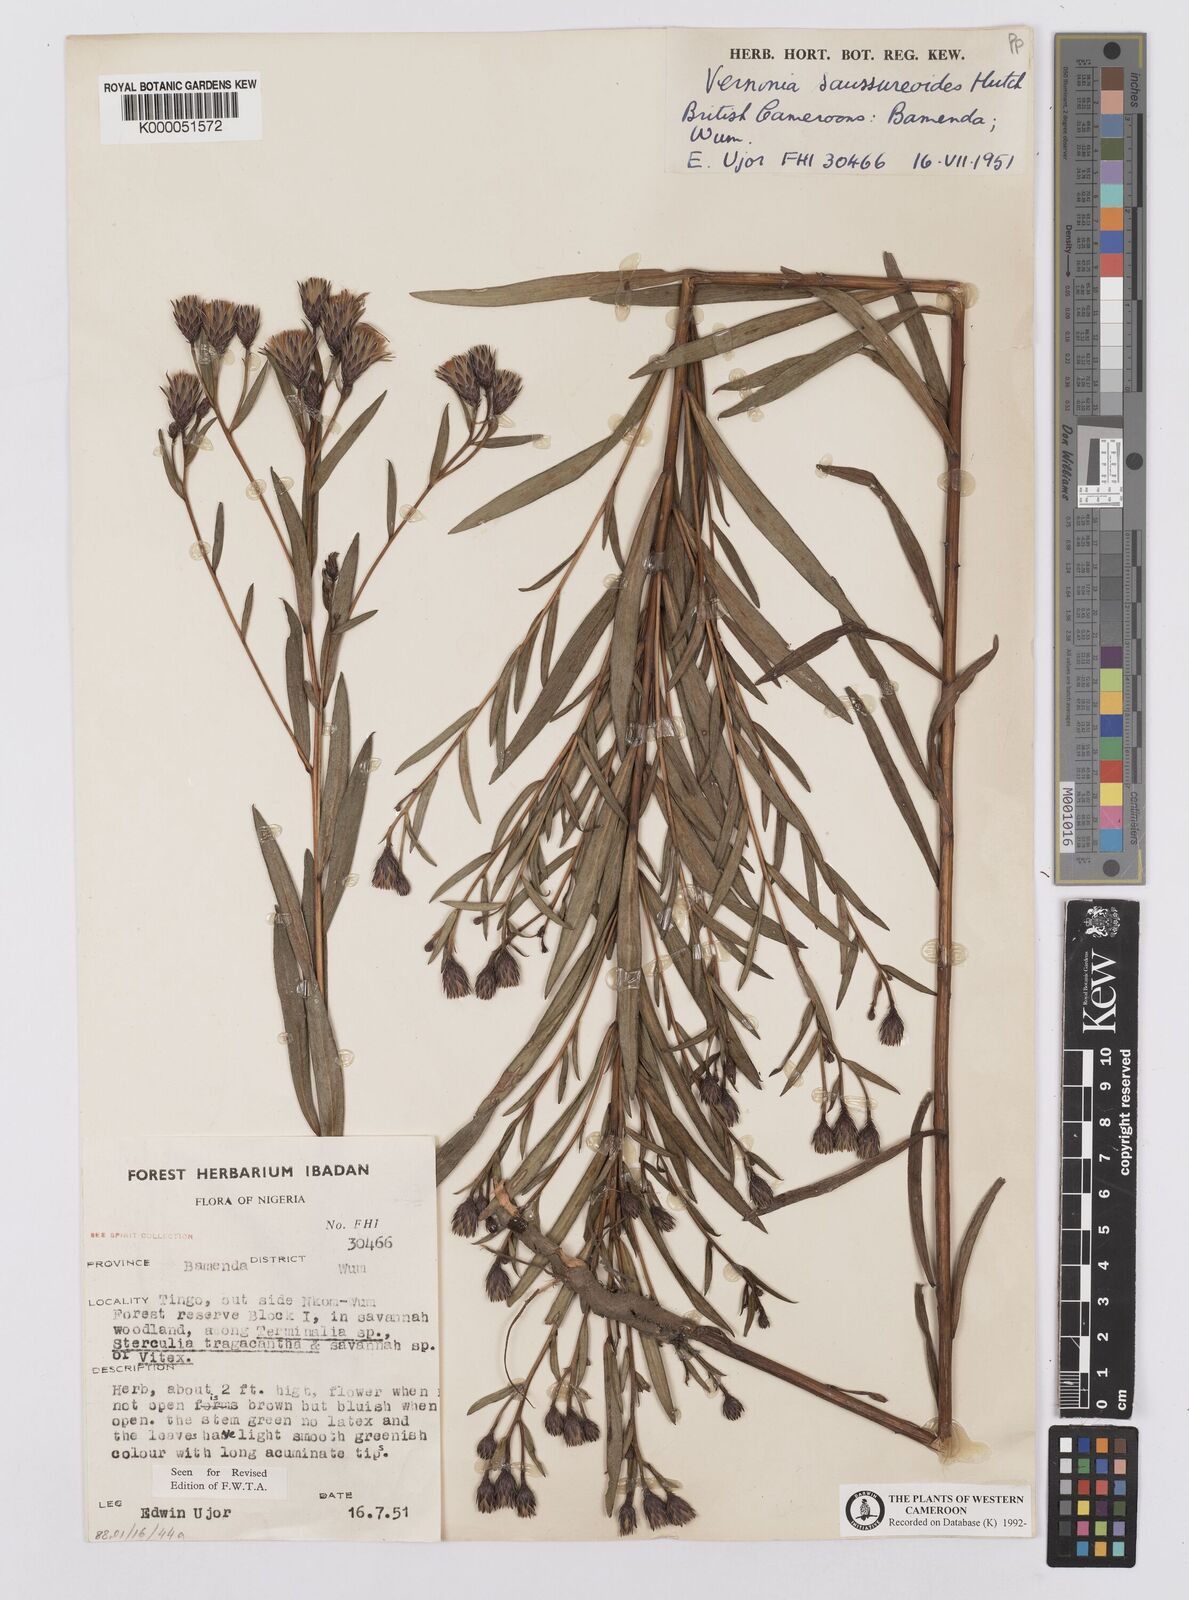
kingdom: Plantae
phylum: Tracheophyta
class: Magnoliopsida
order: Asterales
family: Asteraceae
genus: Linzia
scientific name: Linzia infundibularis
